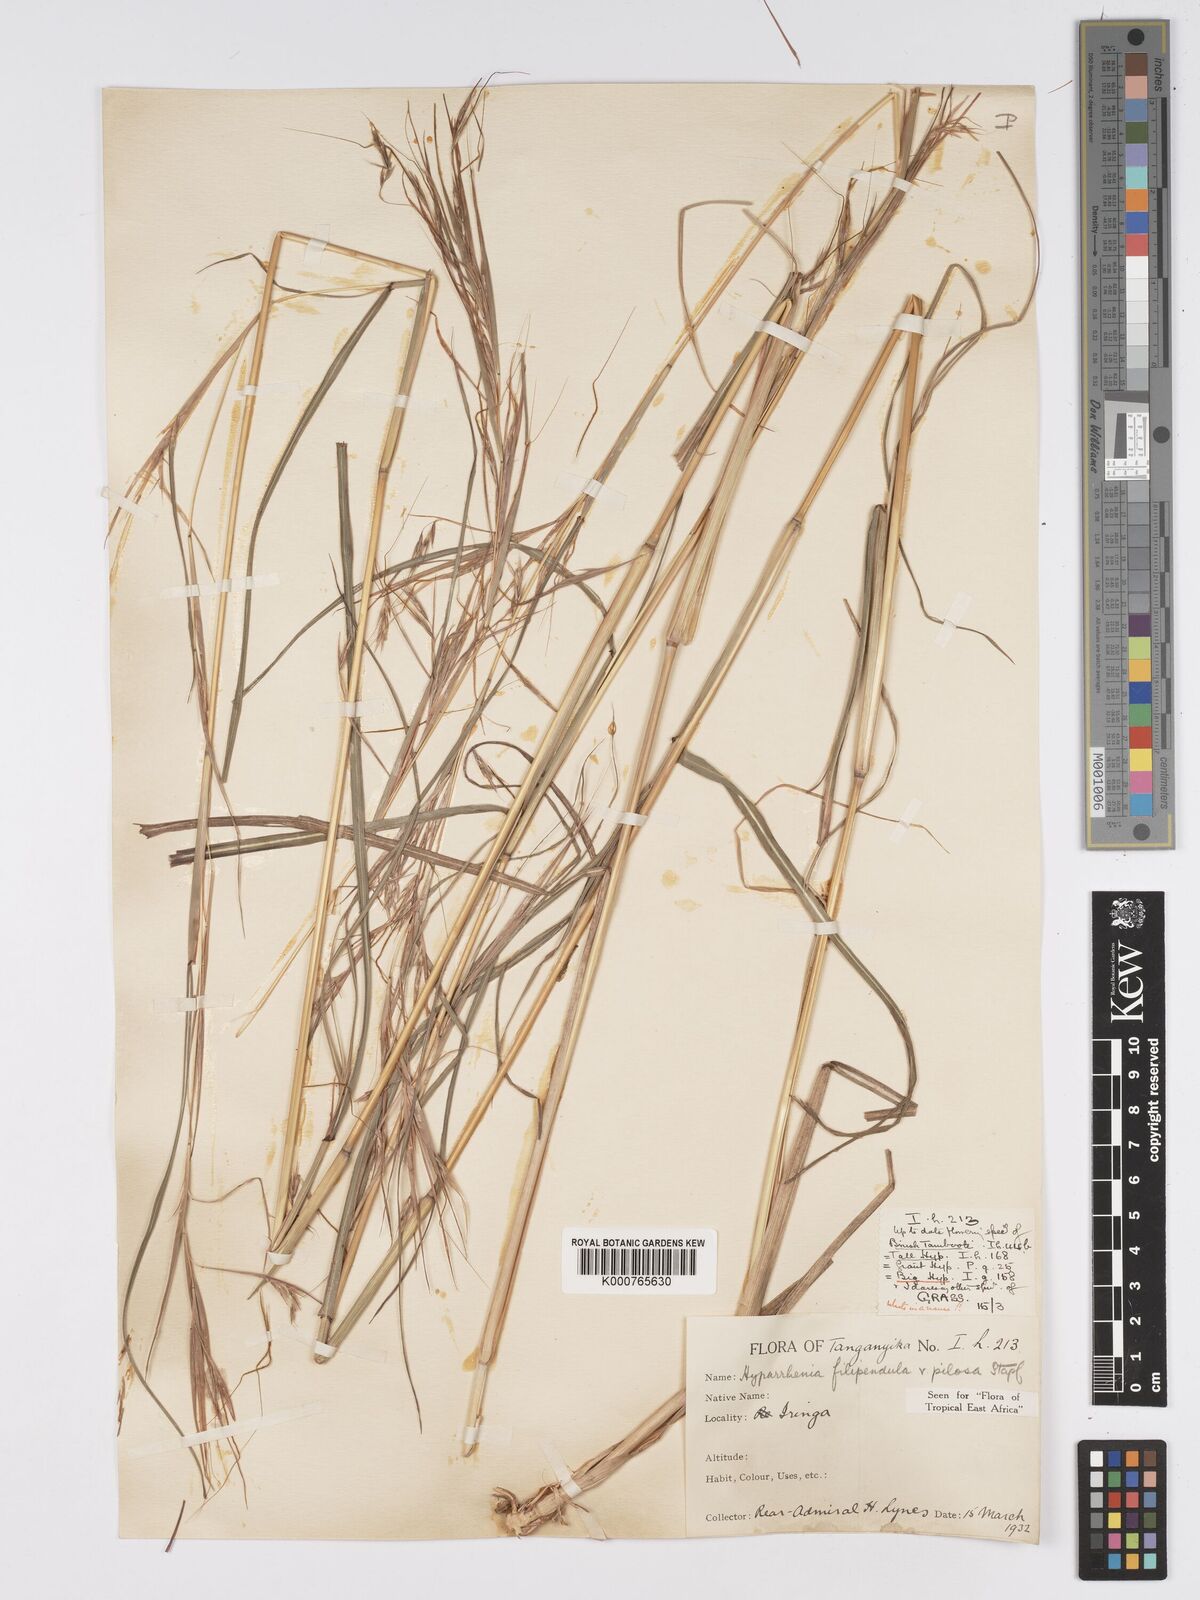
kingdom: Plantae
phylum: Tracheophyta
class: Liliopsida
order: Poales
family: Poaceae
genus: Hyparrhenia
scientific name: Hyparrhenia filipendula
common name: Tambookie grass
